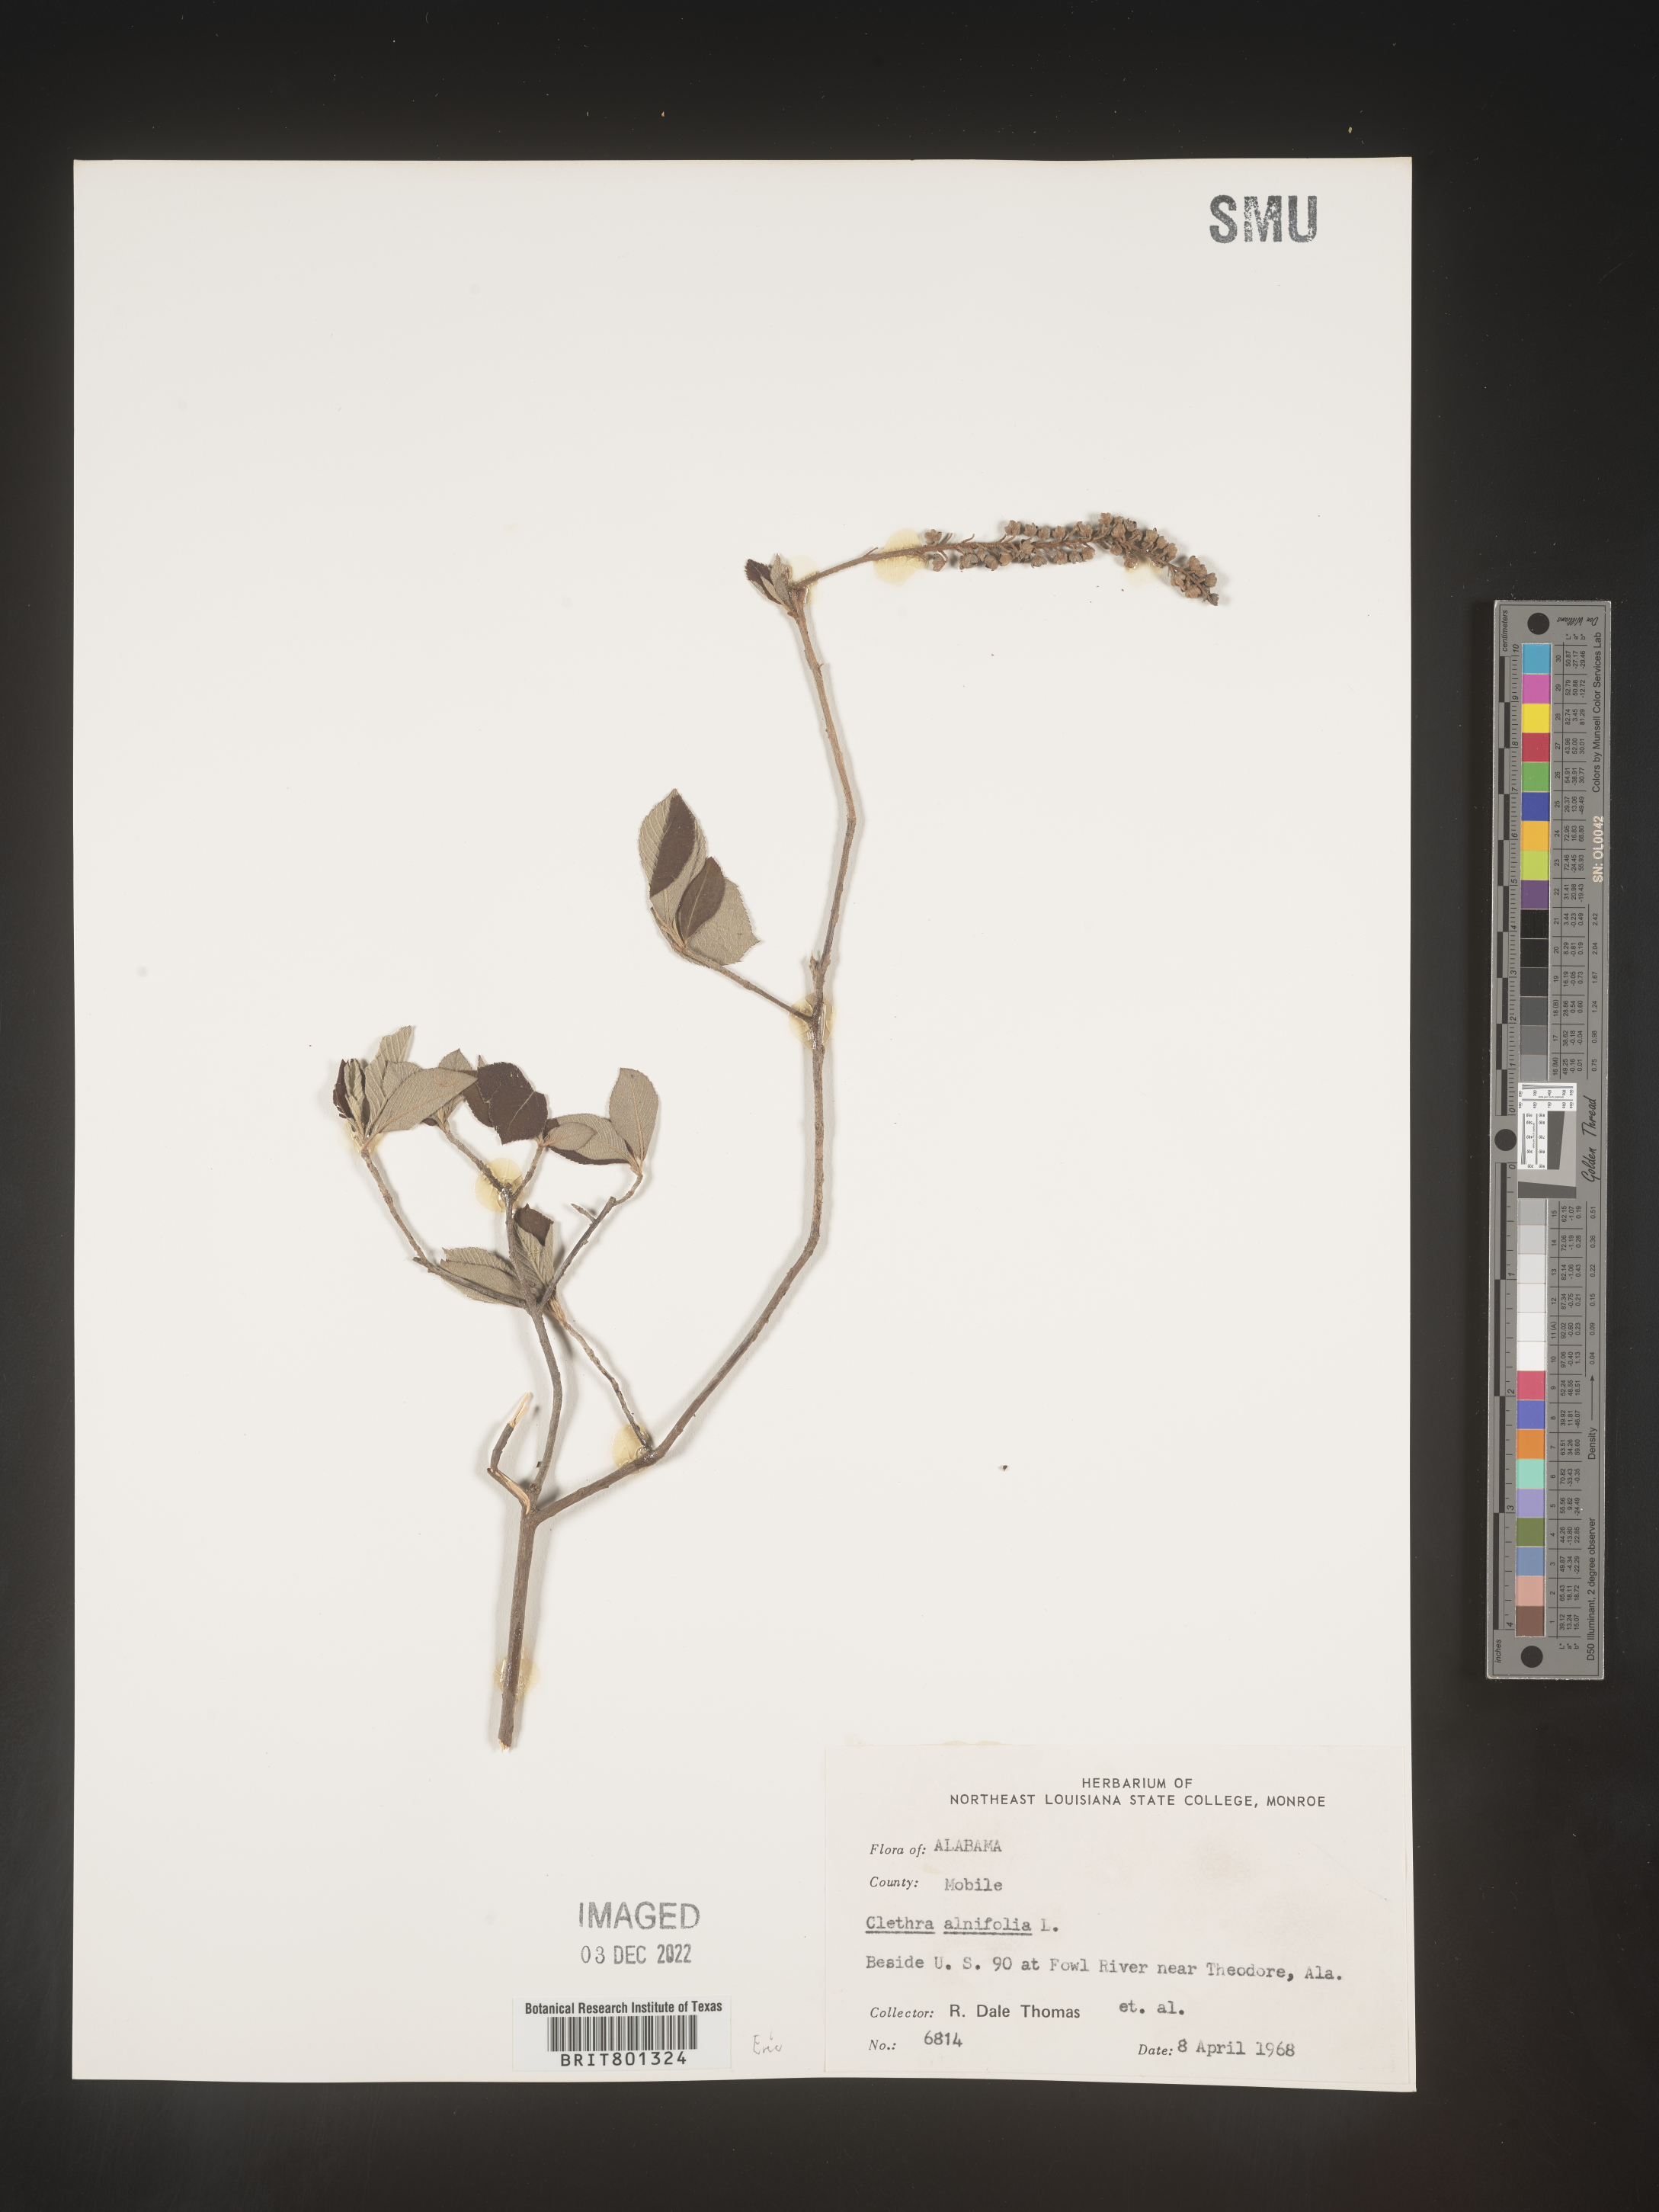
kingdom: Plantae
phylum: Tracheophyta
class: Magnoliopsida
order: Ericales
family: Clethraceae
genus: Clethra
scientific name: Clethra alnifolia
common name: Sweet pepperbush
